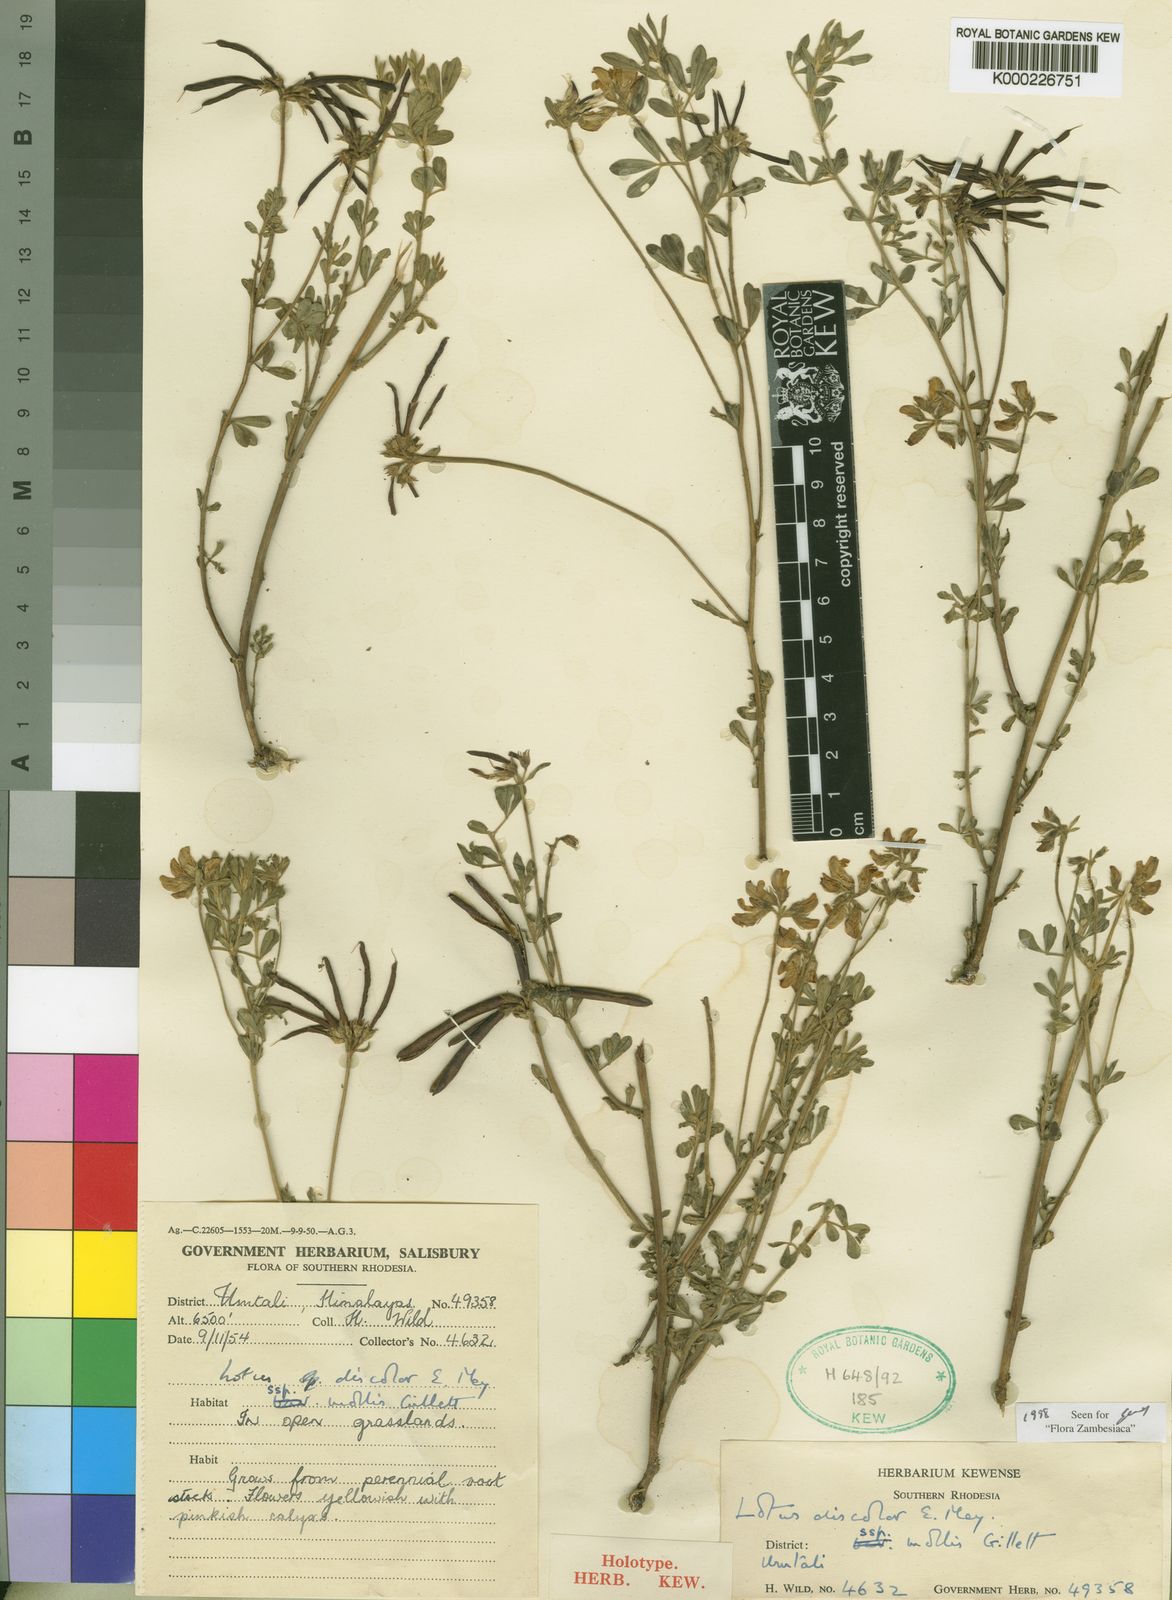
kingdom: Plantae
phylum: Tracheophyta
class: Magnoliopsida
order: Fabales
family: Fabaceae
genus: Lotus
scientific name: Lotus discolor
